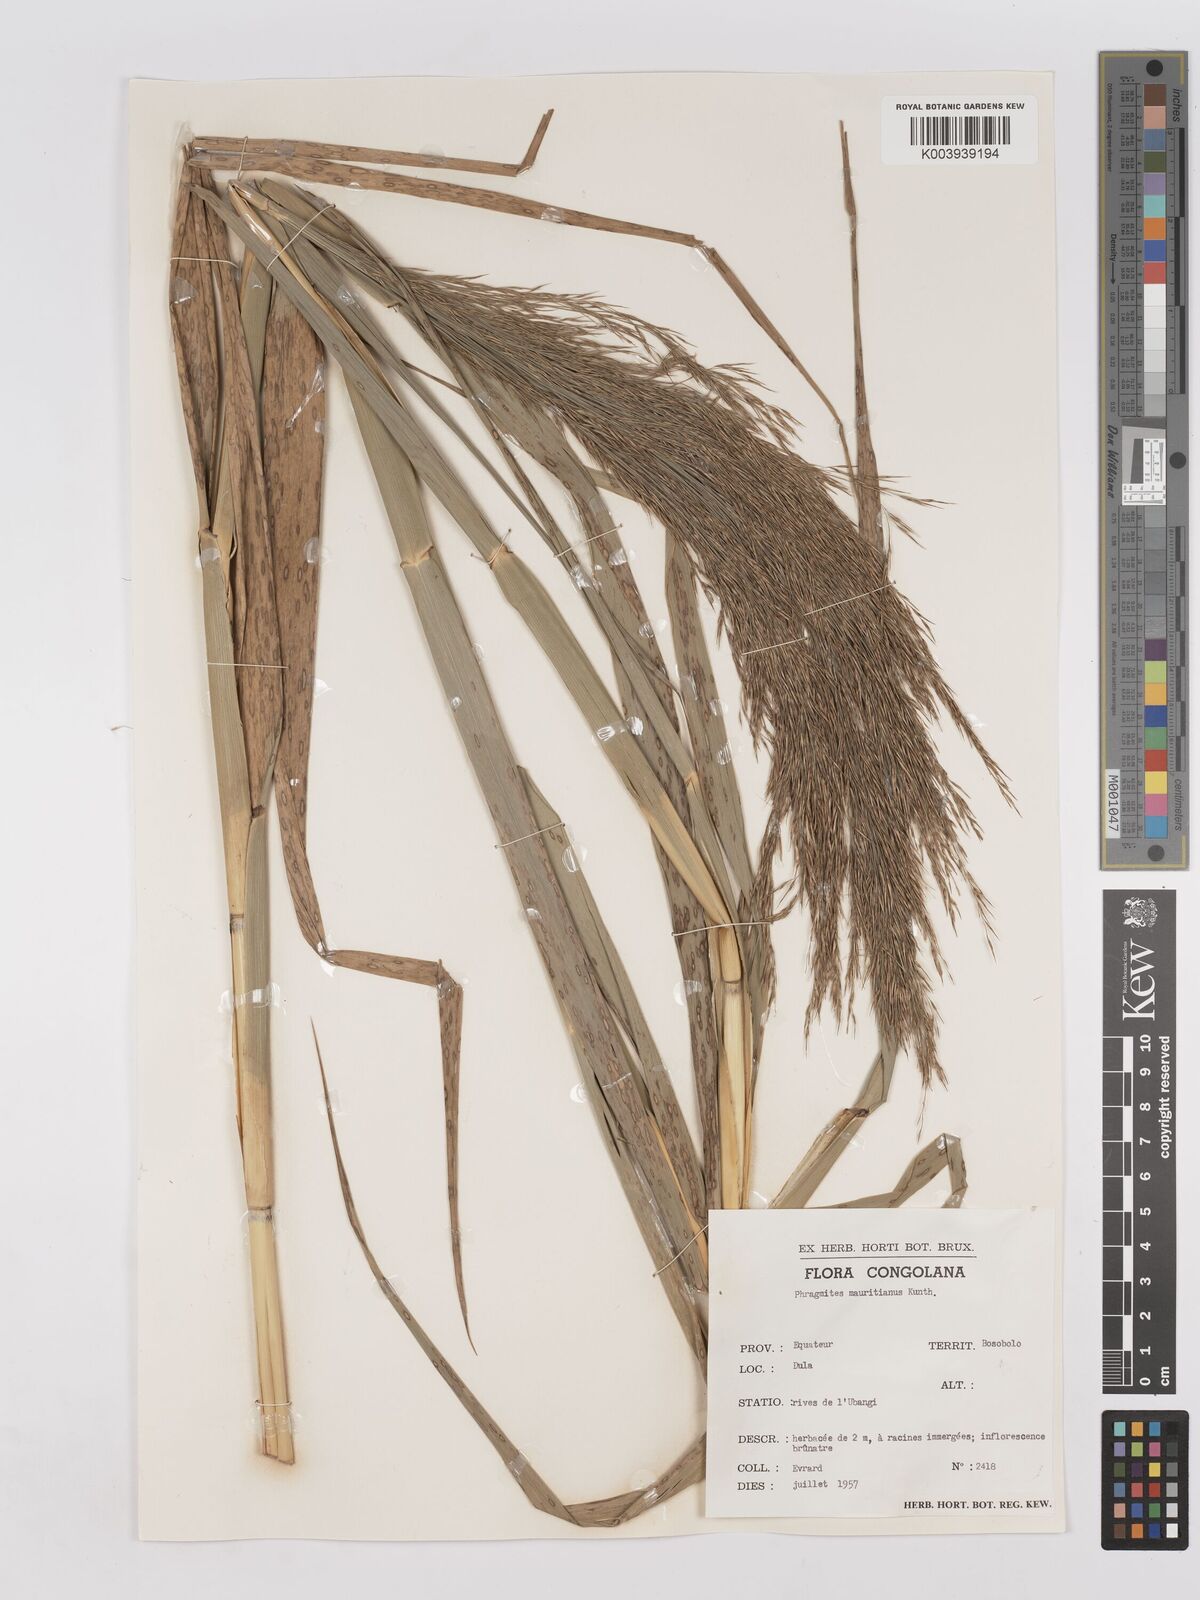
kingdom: Plantae
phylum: Tracheophyta
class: Liliopsida
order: Poales
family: Poaceae
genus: Phragmites
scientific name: Phragmites mauritianus
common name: Reed grass
